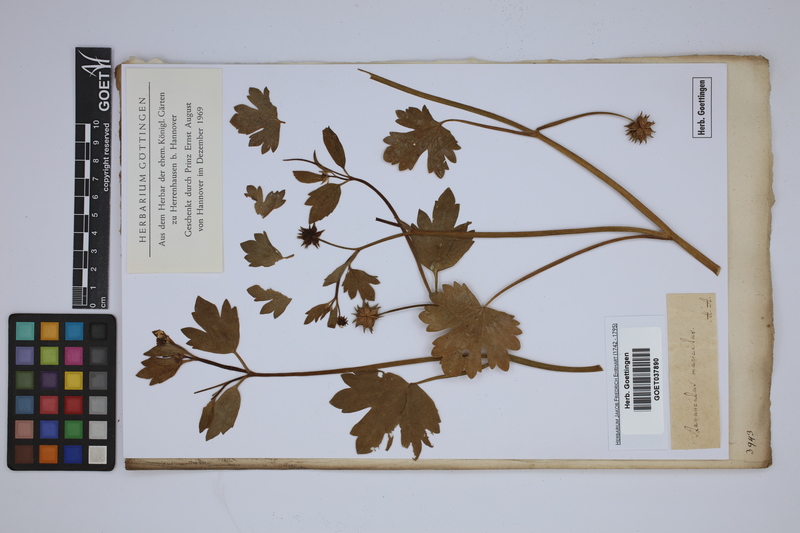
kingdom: Plantae
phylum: Tracheophyta
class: Magnoliopsida
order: Ranunculales
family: Ranunculaceae
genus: Ranunculus
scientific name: Ranunculus muricatus
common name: Rough-fruited buttercup
